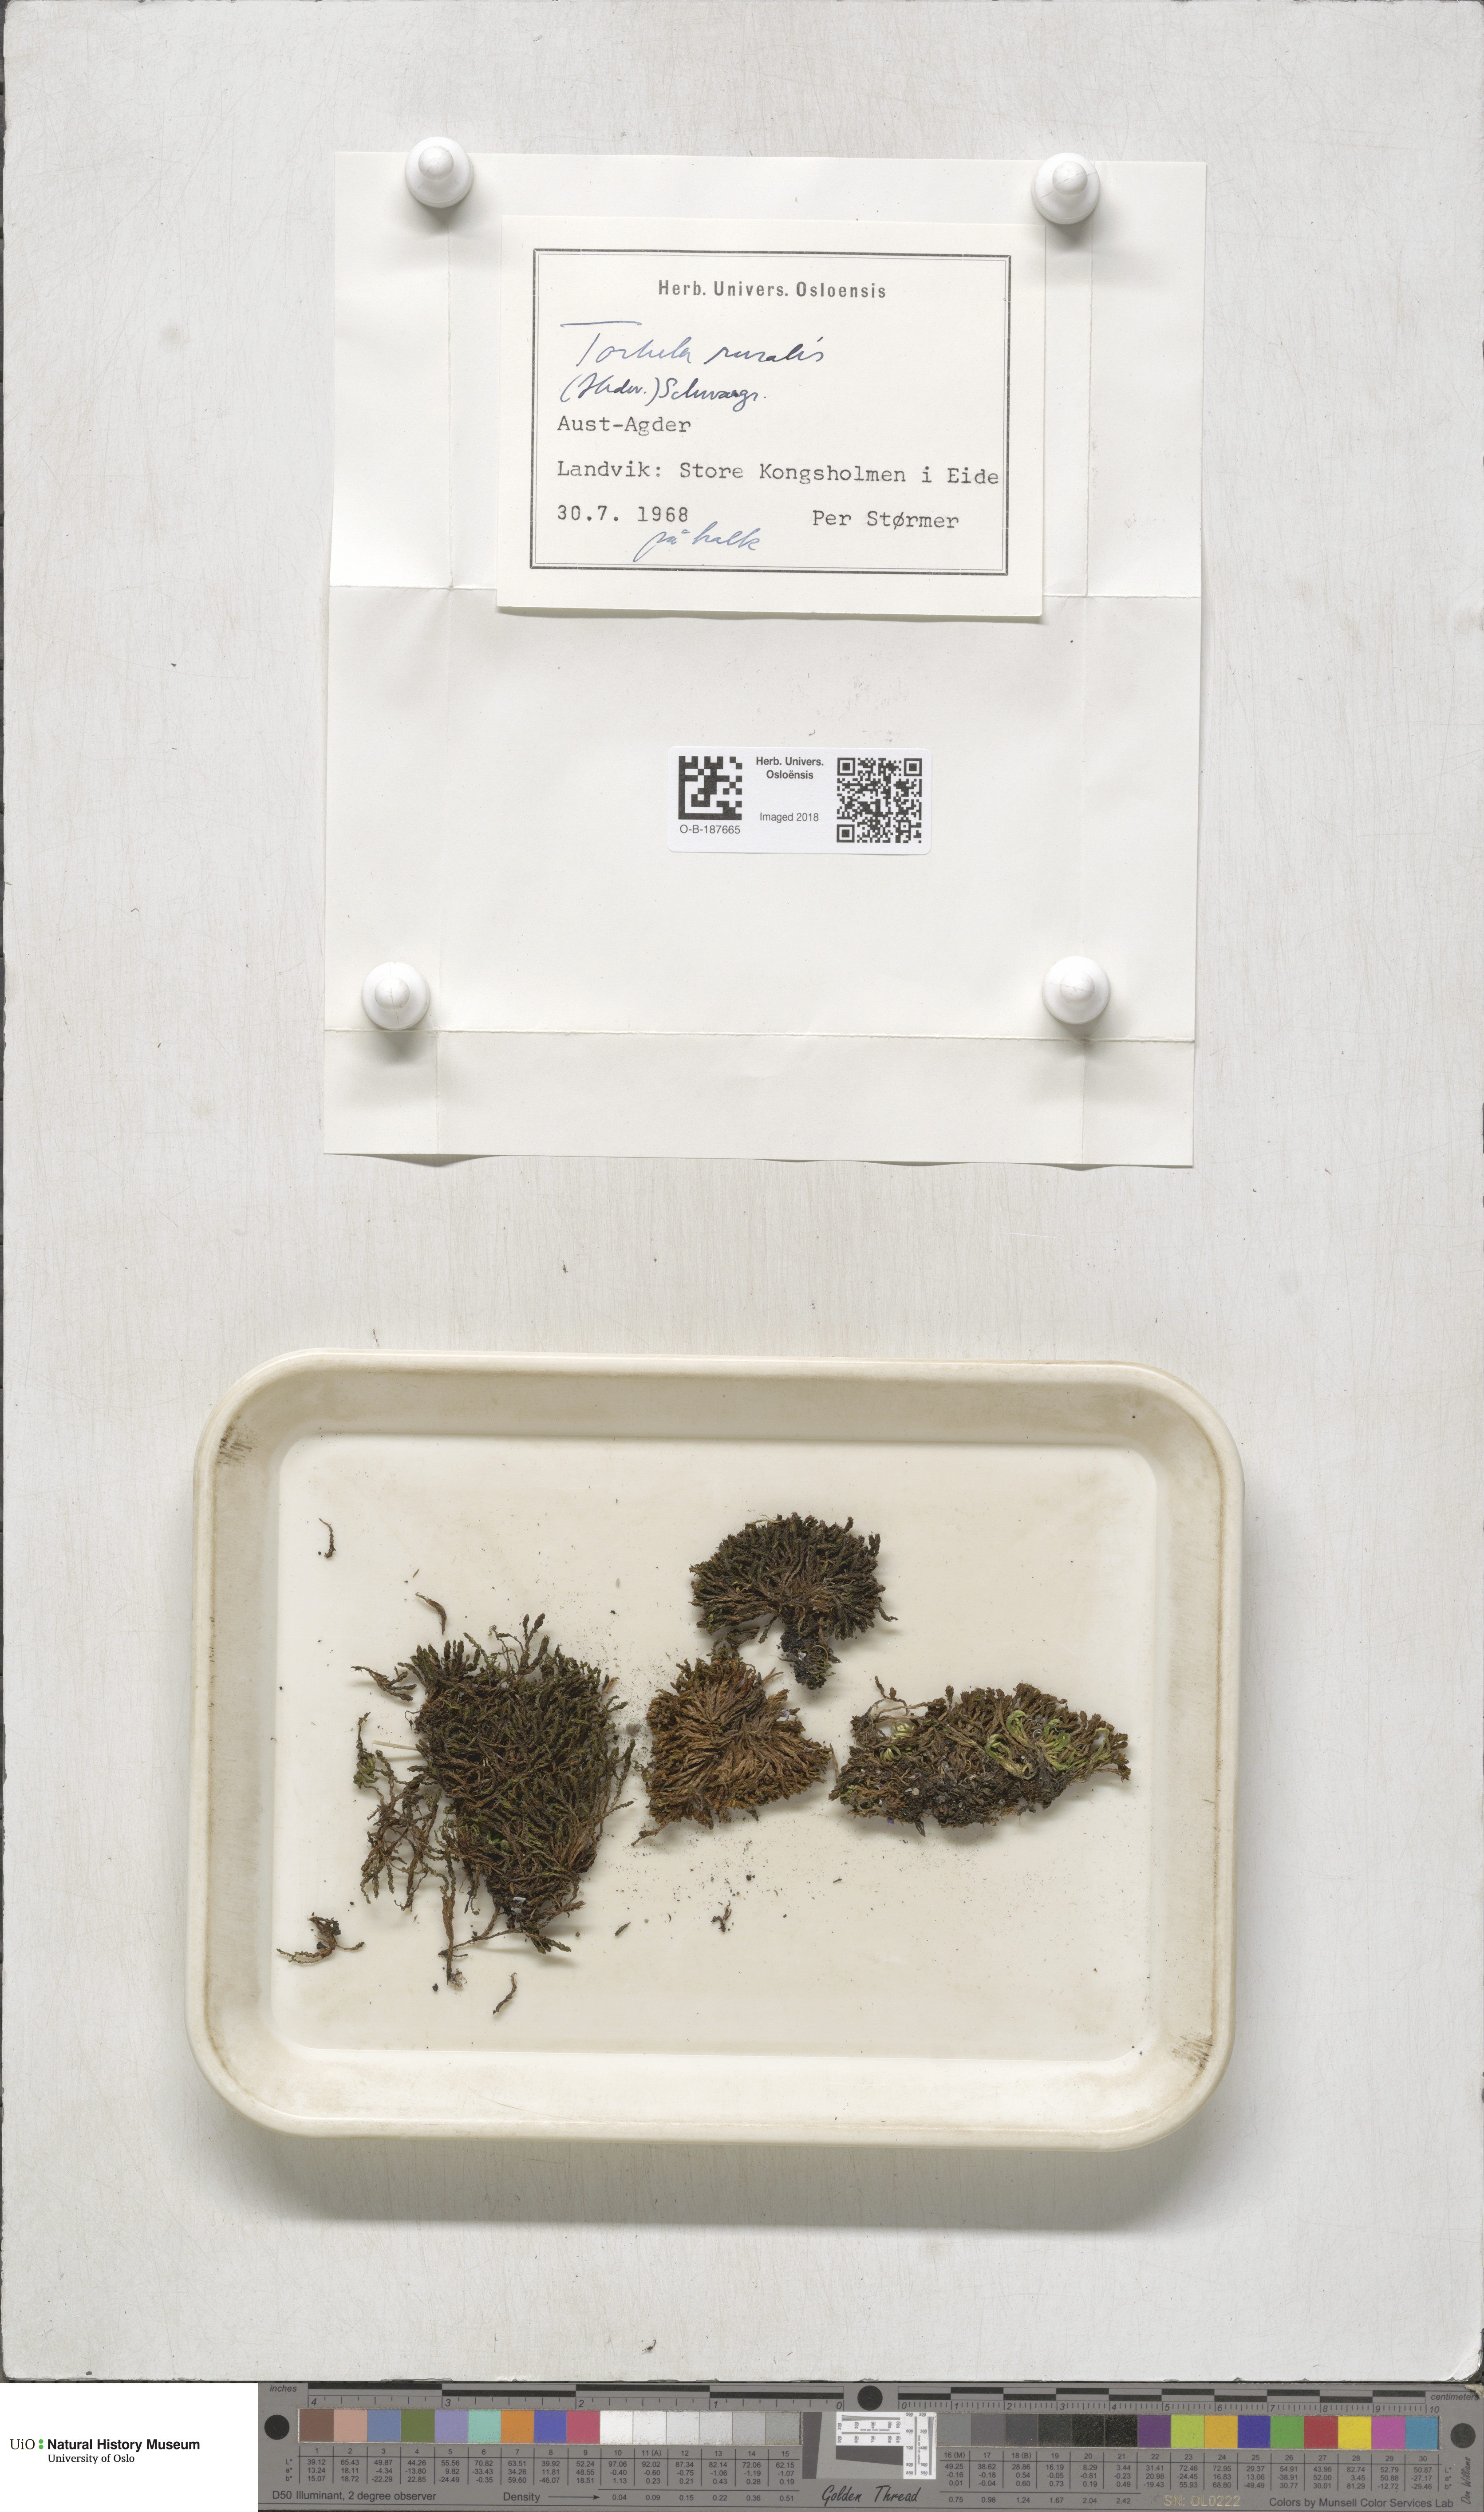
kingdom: Plantae
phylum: Bryophyta
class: Bryopsida
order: Pottiales
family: Pottiaceae
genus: Syntrichia
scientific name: Syntrichia ruralis
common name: Sidewalk screw moss
